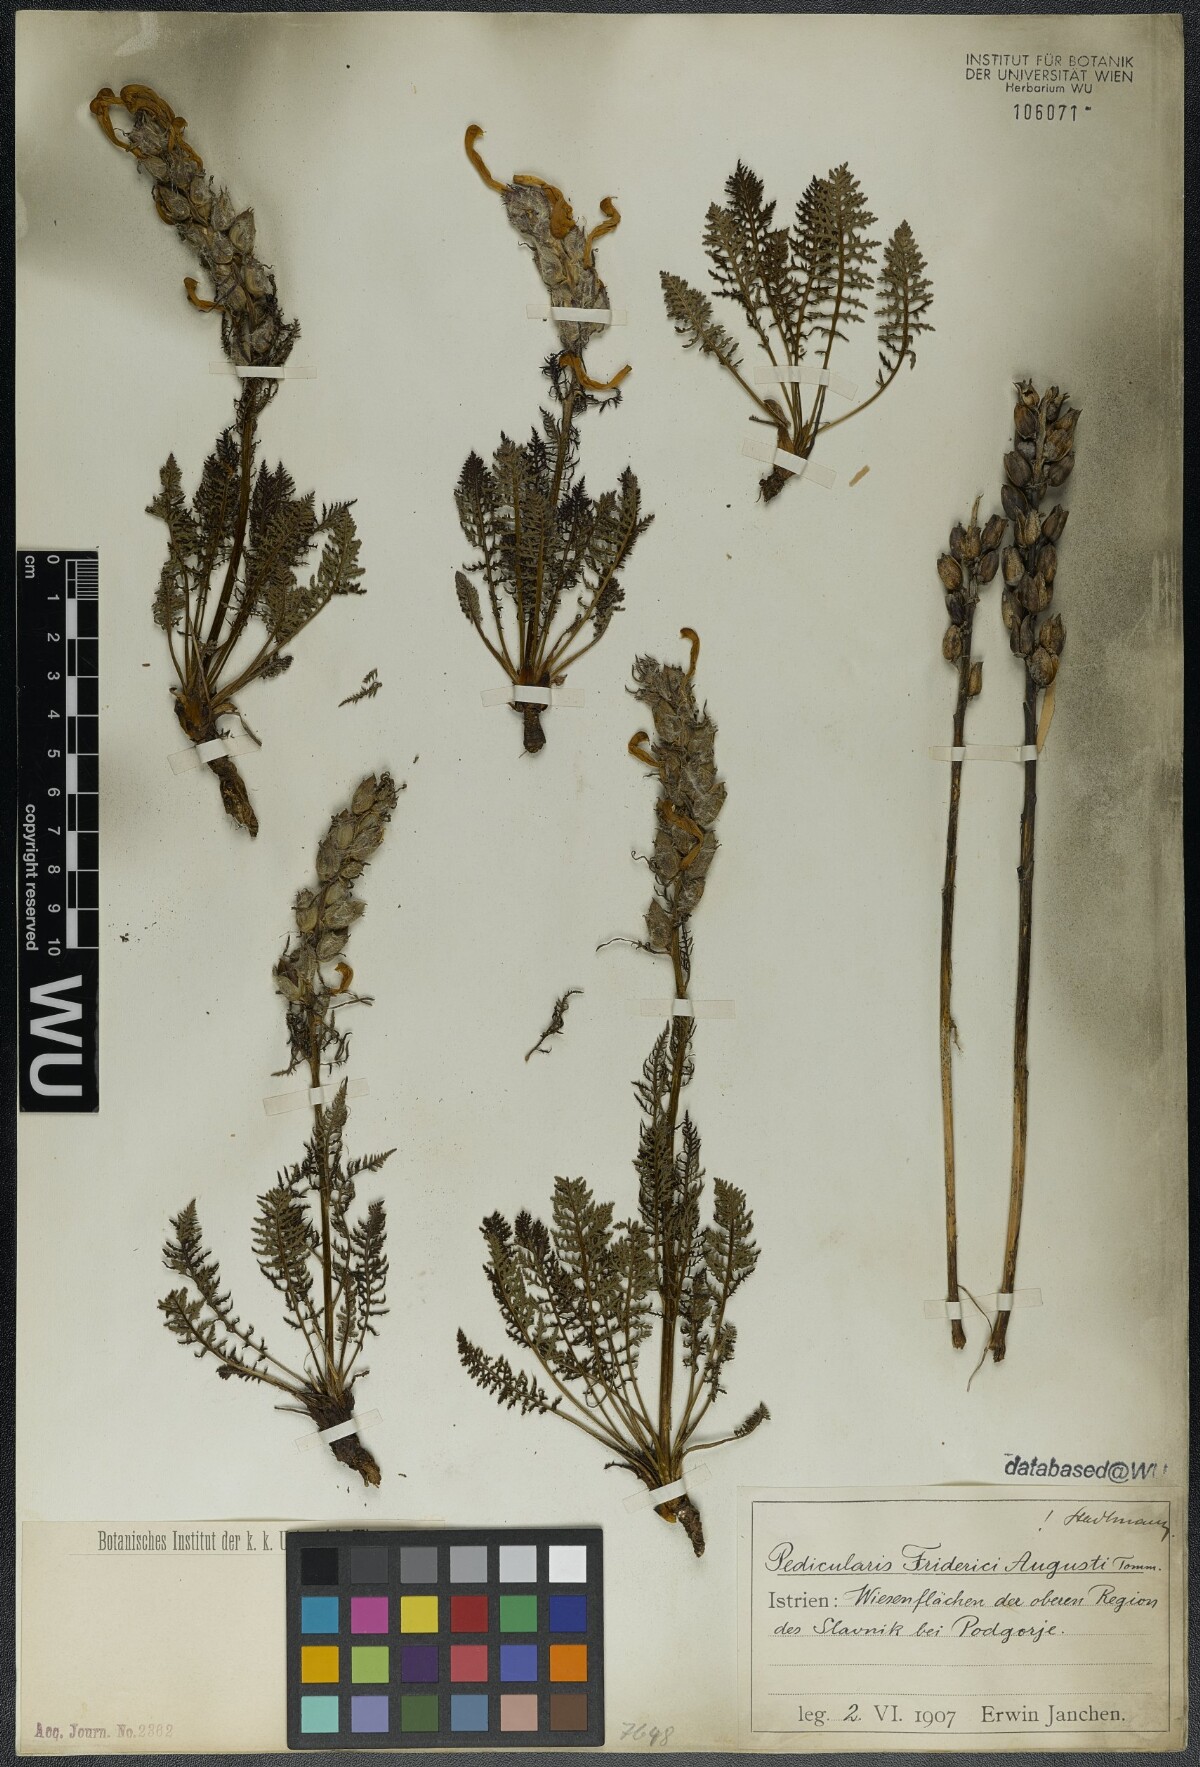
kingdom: Plantae
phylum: Tracheophyta
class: Magnoliopsida
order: Lamiales
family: Orobanchaceae
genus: Pedicularis
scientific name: Pedicularis friderici-augusti
